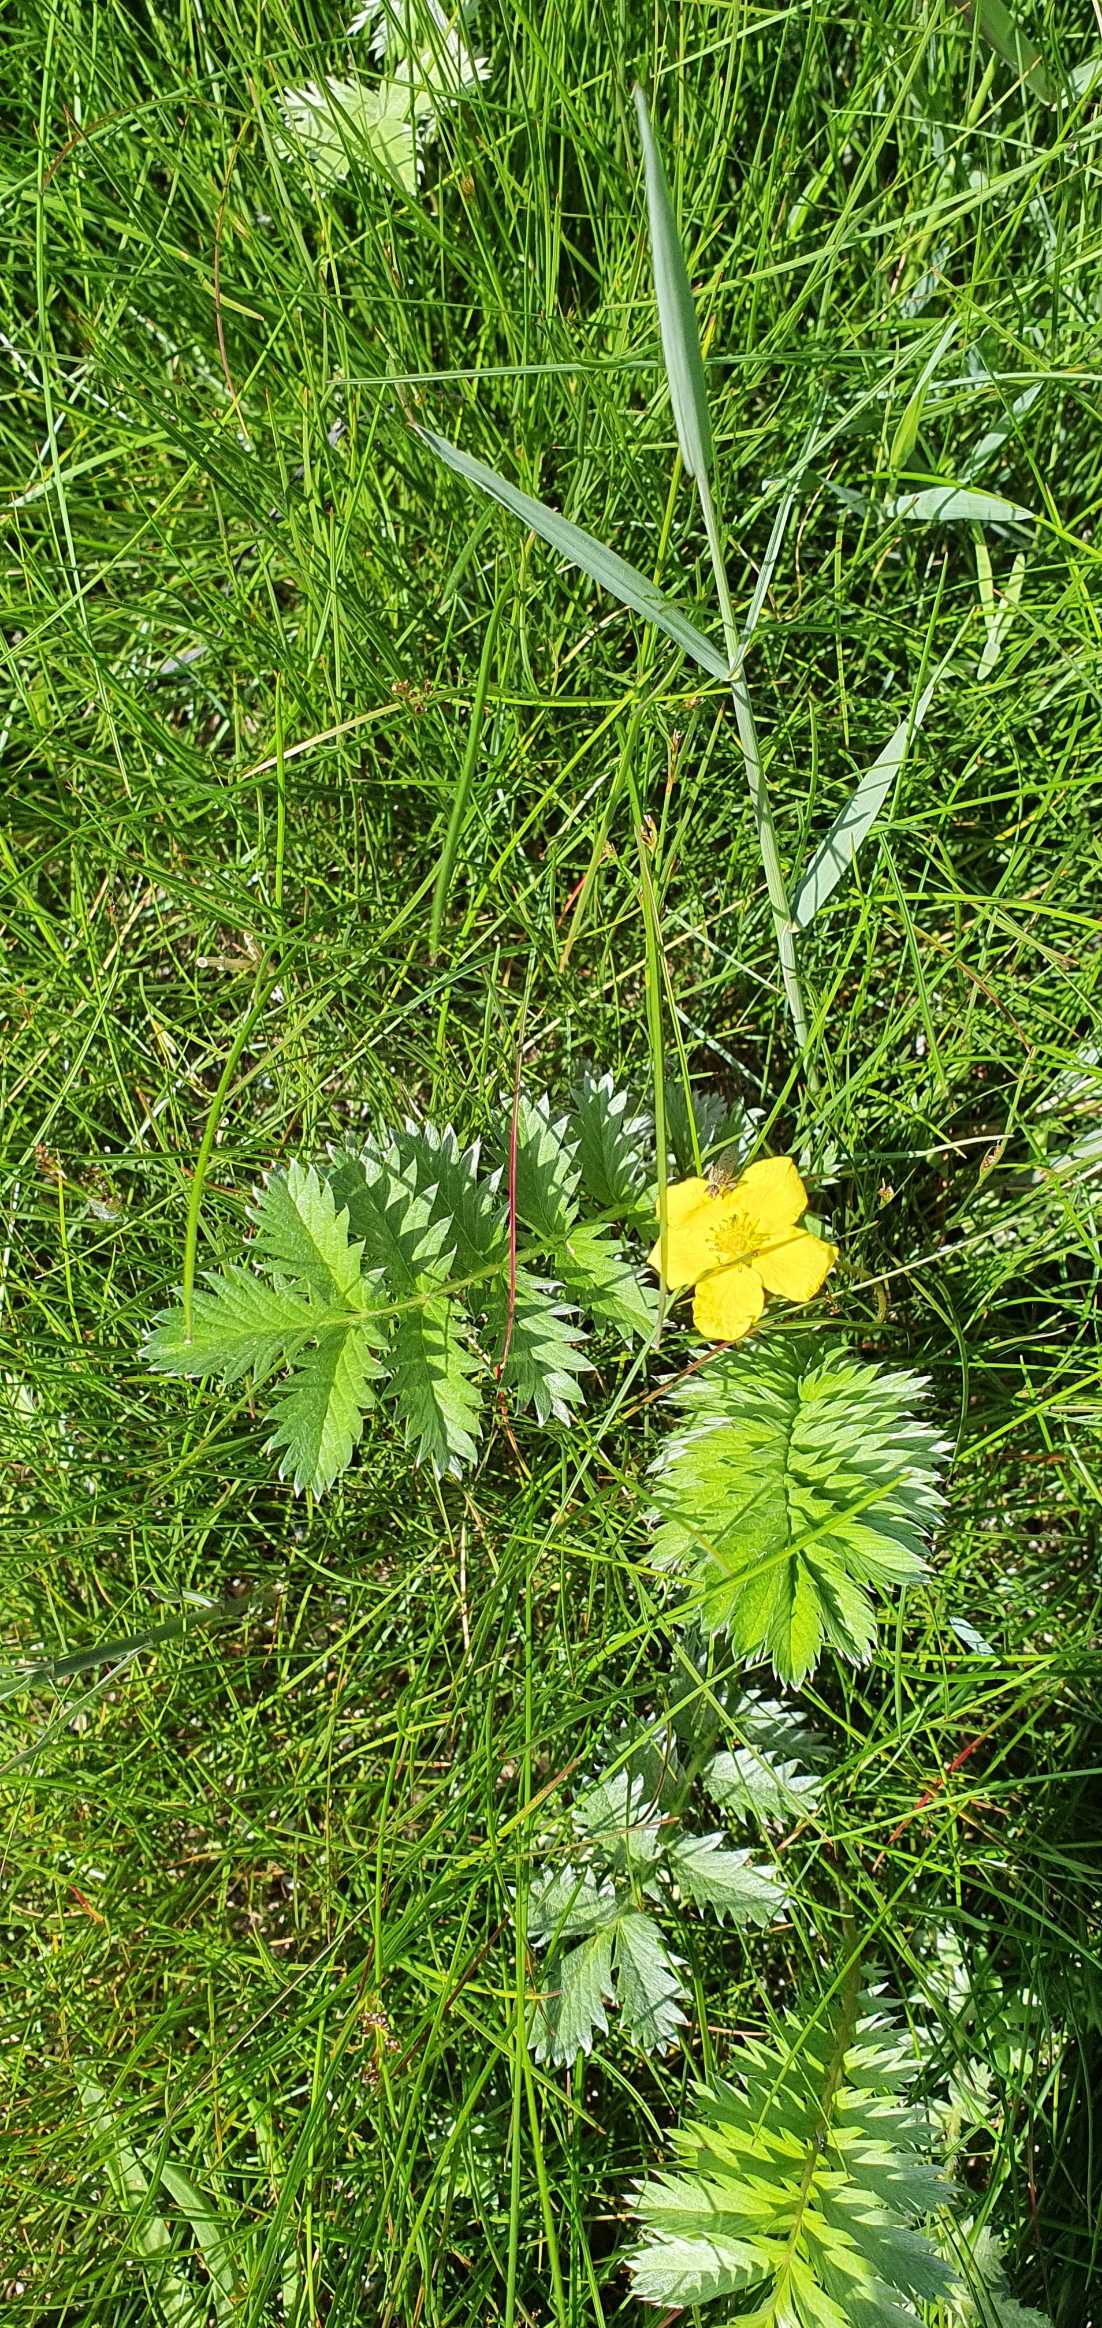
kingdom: Plantae
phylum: Tracheophyta
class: Magnoliopsida
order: Rosales
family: Rosaceae
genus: Argentina
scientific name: Argentina anserina
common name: Gåsepotentil
